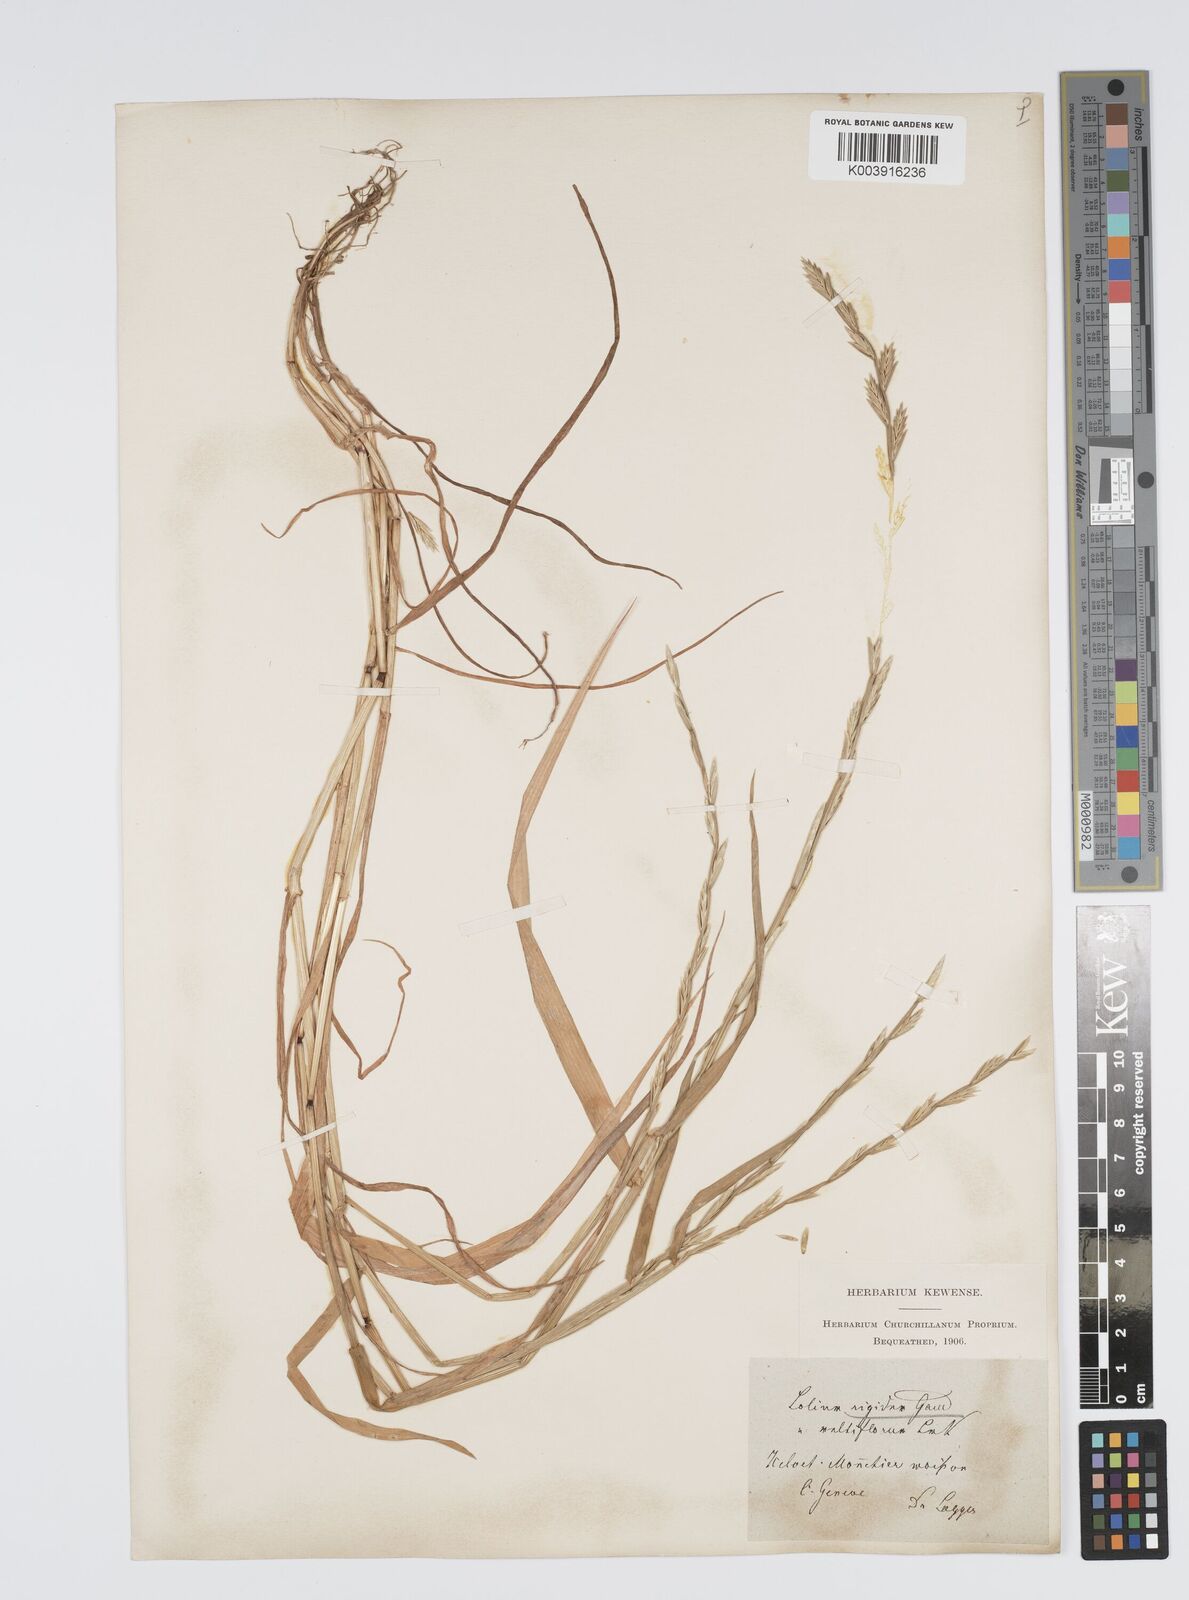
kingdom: Plantae
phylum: Tracheophyta
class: Liliopsida
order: Poales
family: Poaceae
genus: Lolium
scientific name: Lolium rigidum
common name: Wimmera ryegrass
